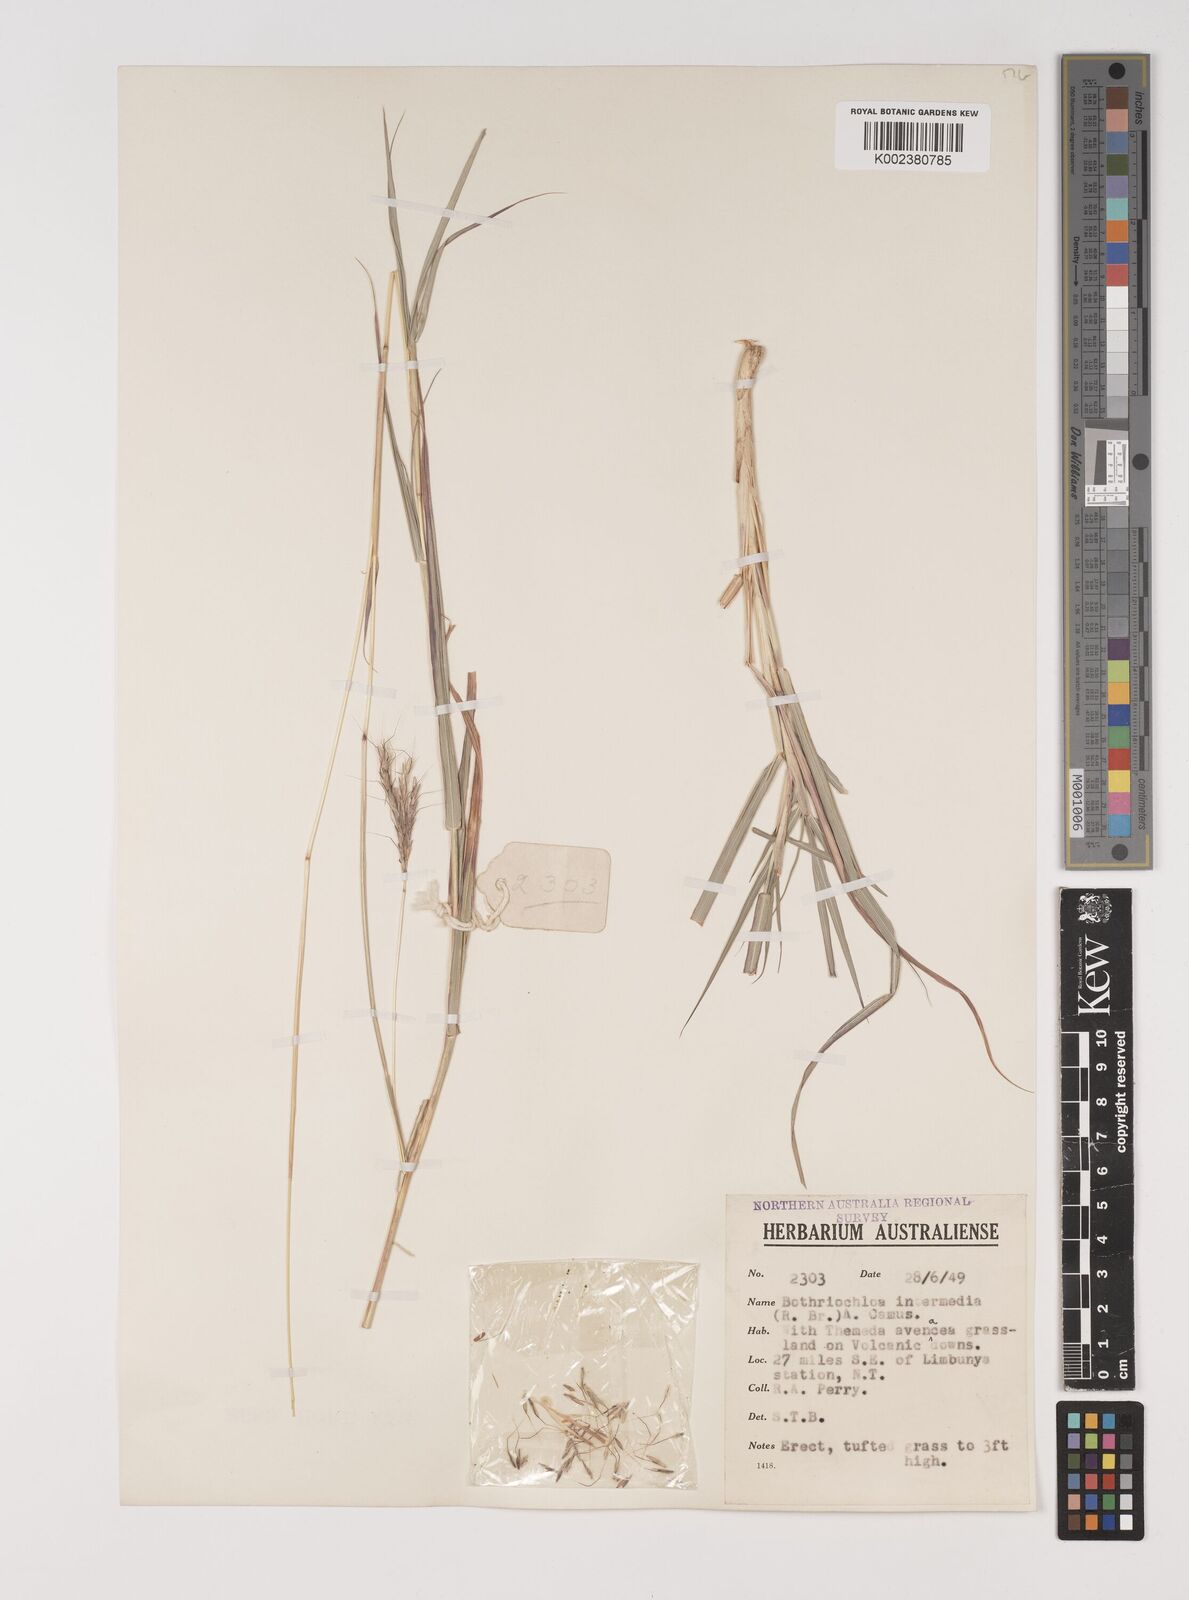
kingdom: Plantae
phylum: Tracheophyta
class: Liliopsida
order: Poales
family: Poaceae
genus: Bothriochloa
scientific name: Bothriochloa bladhii
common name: Caucasian bluestem
